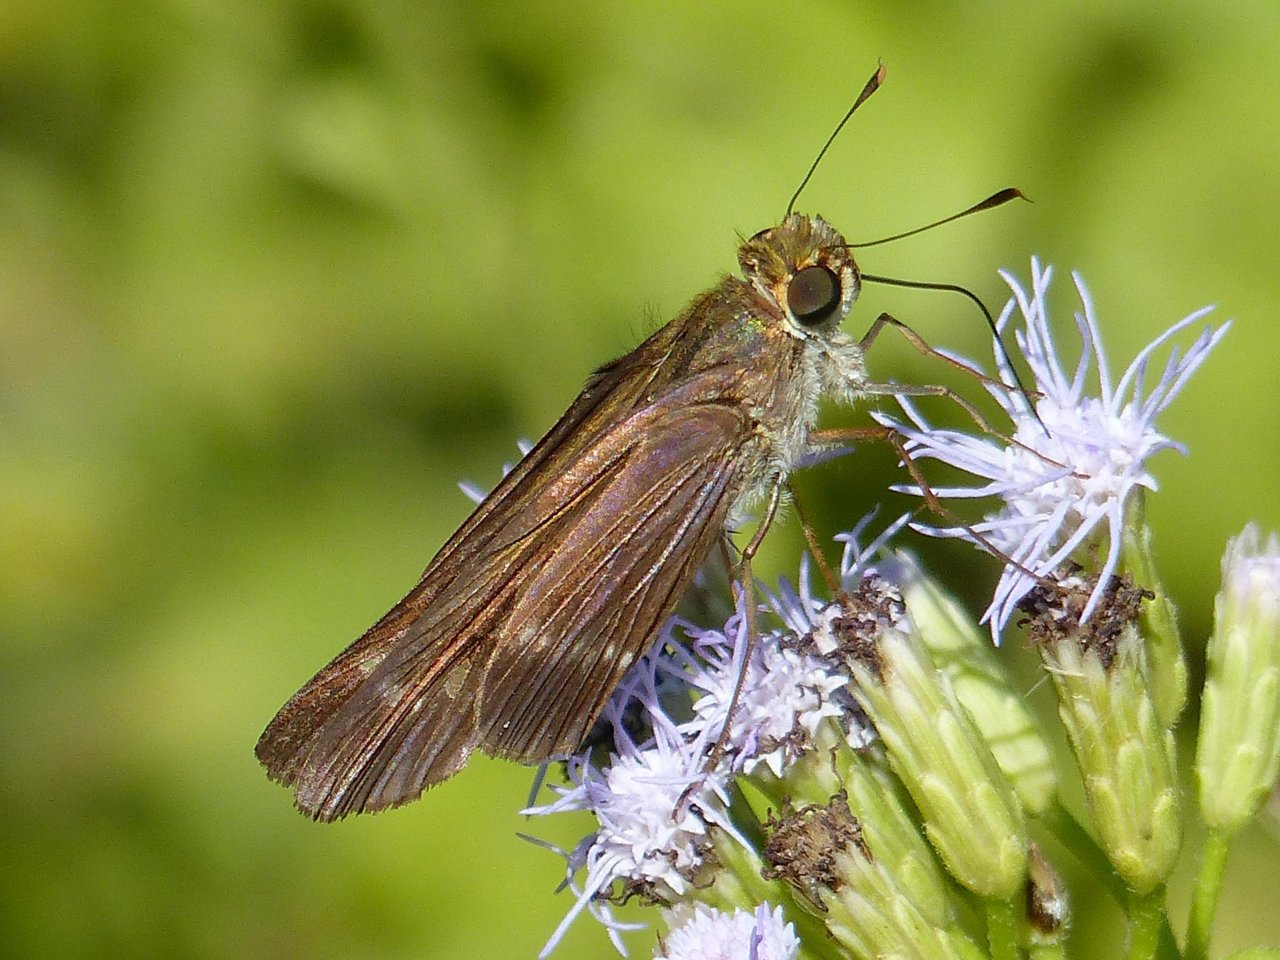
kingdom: Animalia
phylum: Arthropoda
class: Insecta
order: Lepidoptera
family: Hesperiidae
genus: Turesis
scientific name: Turesis lucas
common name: Purple-washed Skipper
